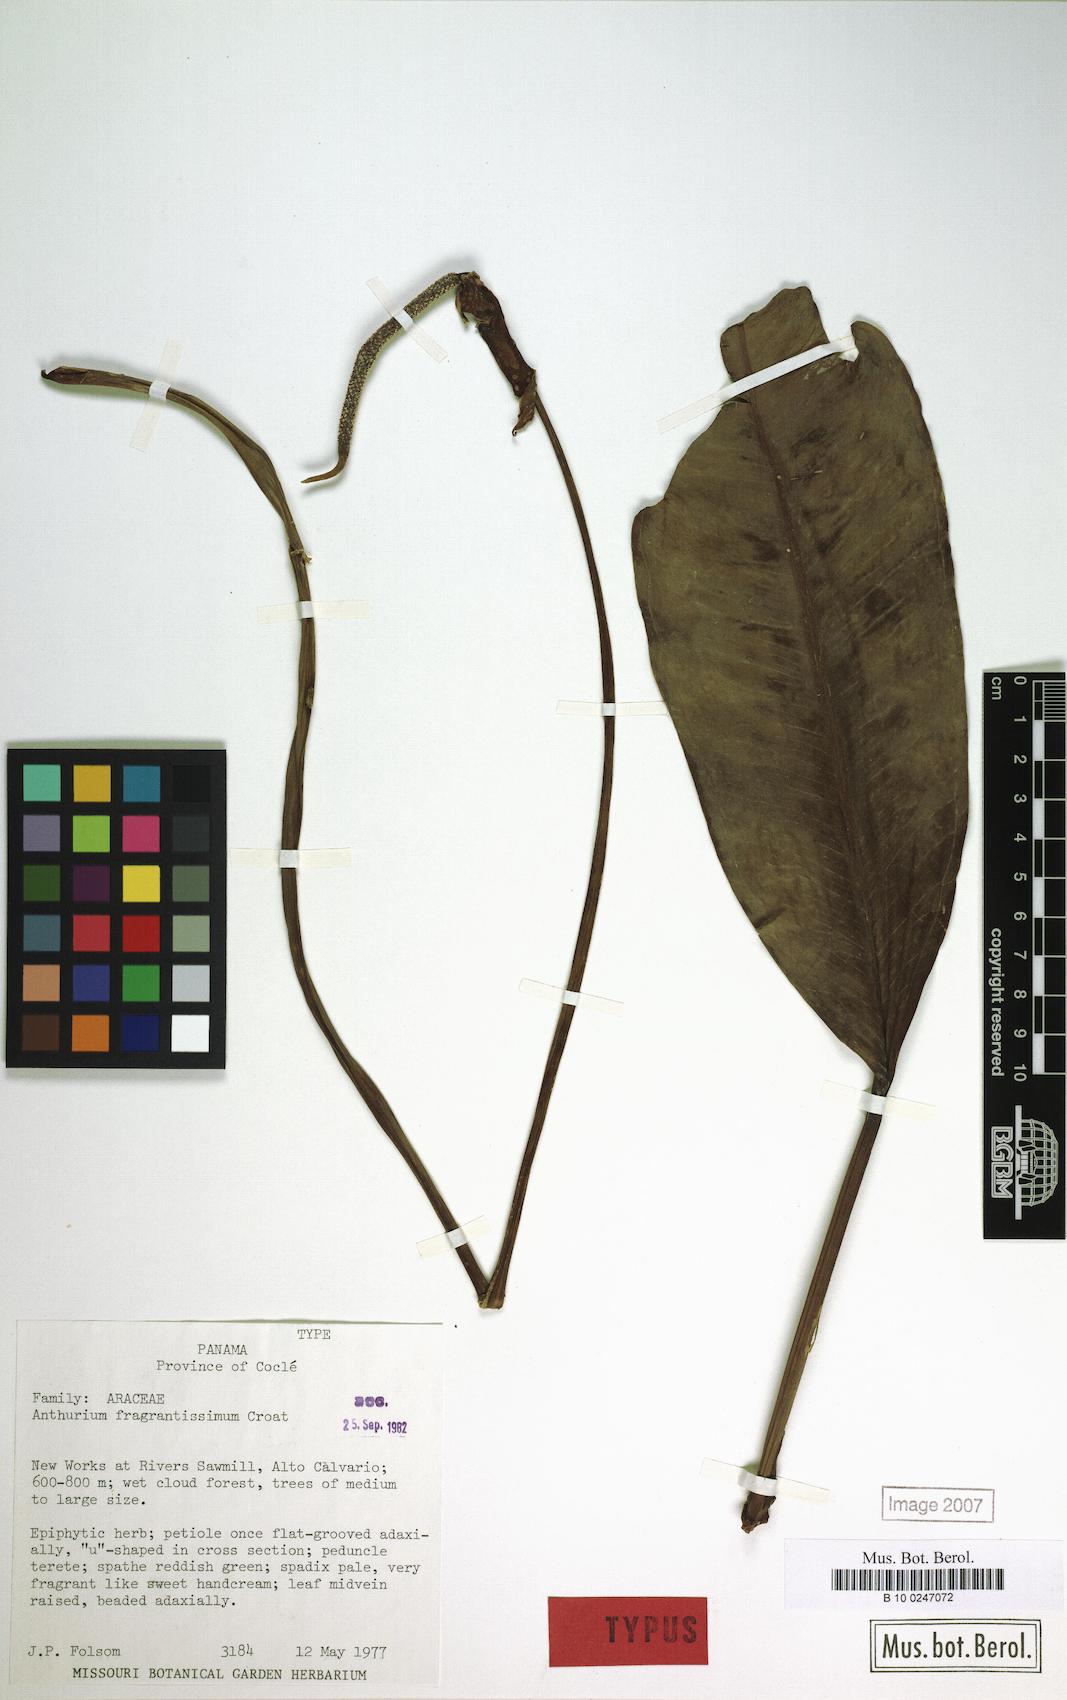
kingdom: Plantae
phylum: Tracheophyta
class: Liliopsida
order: Alismatales
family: Araceae
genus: Anthurium
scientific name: Anthurium fragrantissimum
